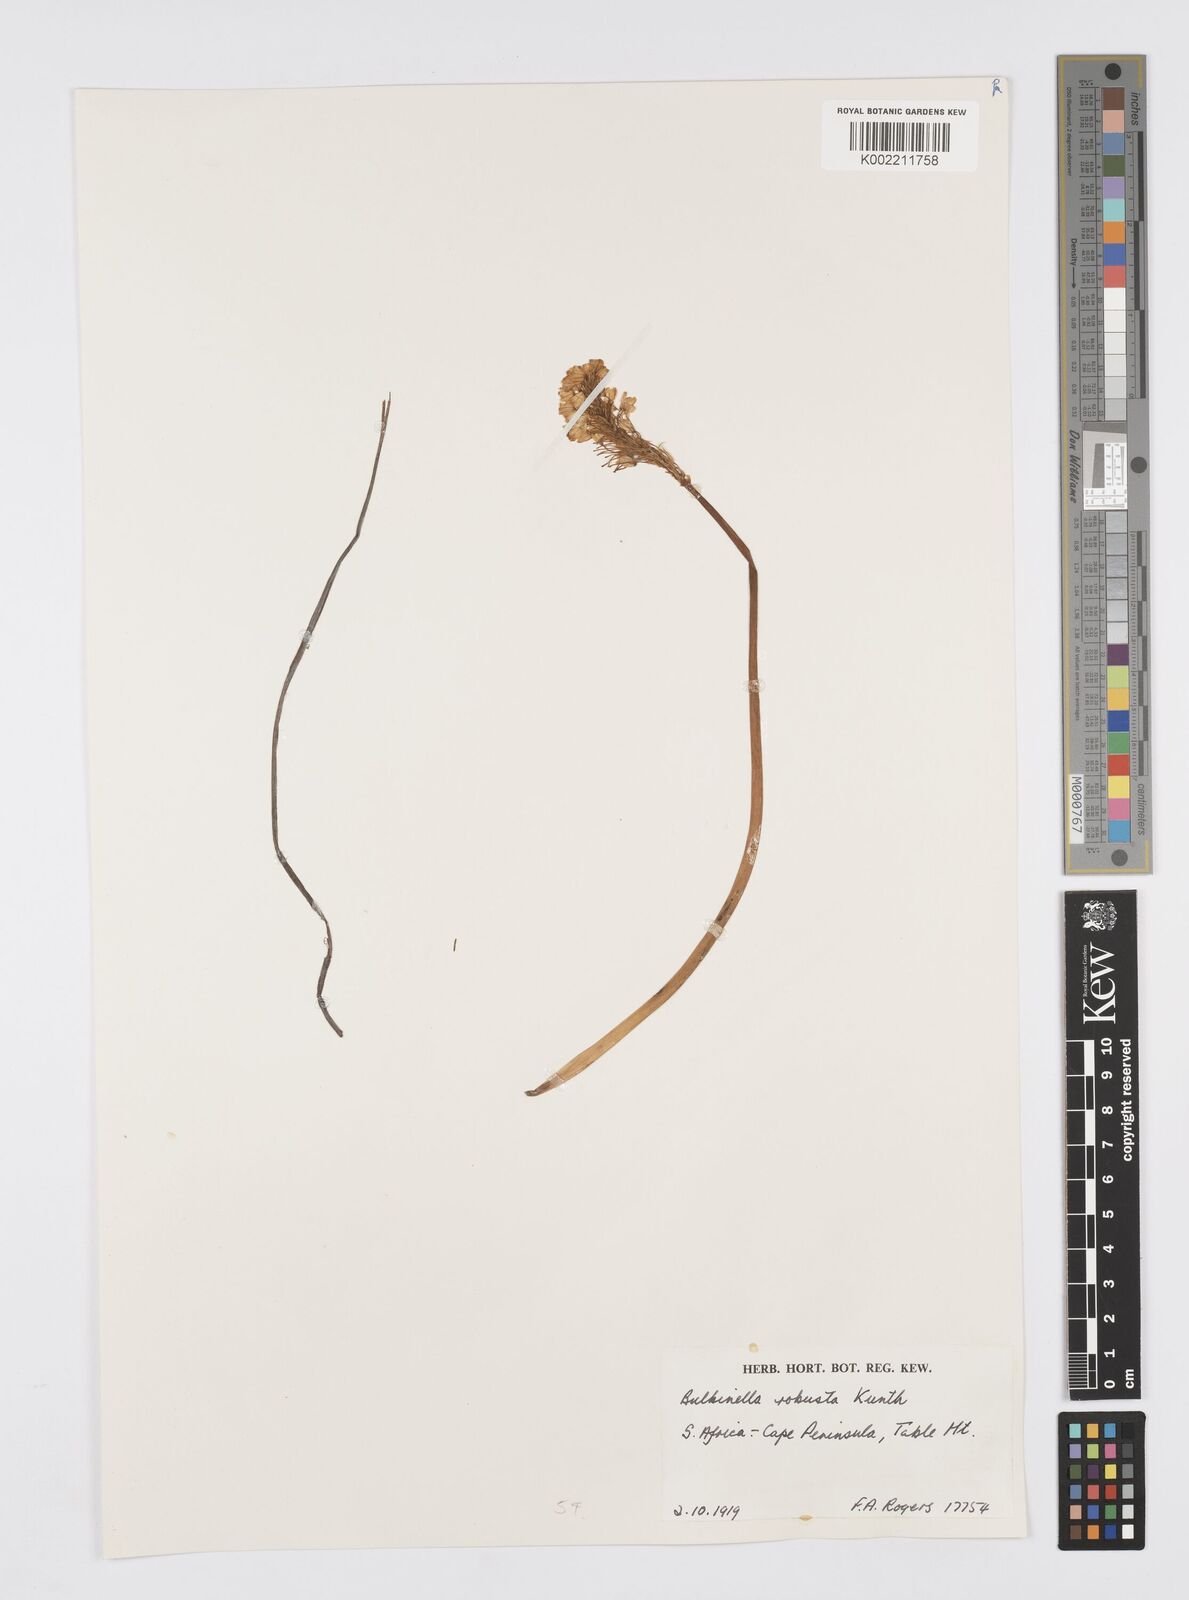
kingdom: Plantae
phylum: Tracheophyta
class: Liliopsida
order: Asparagales
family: Asphodelaceae
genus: Bulbinella
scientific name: Bulbinella nutans
